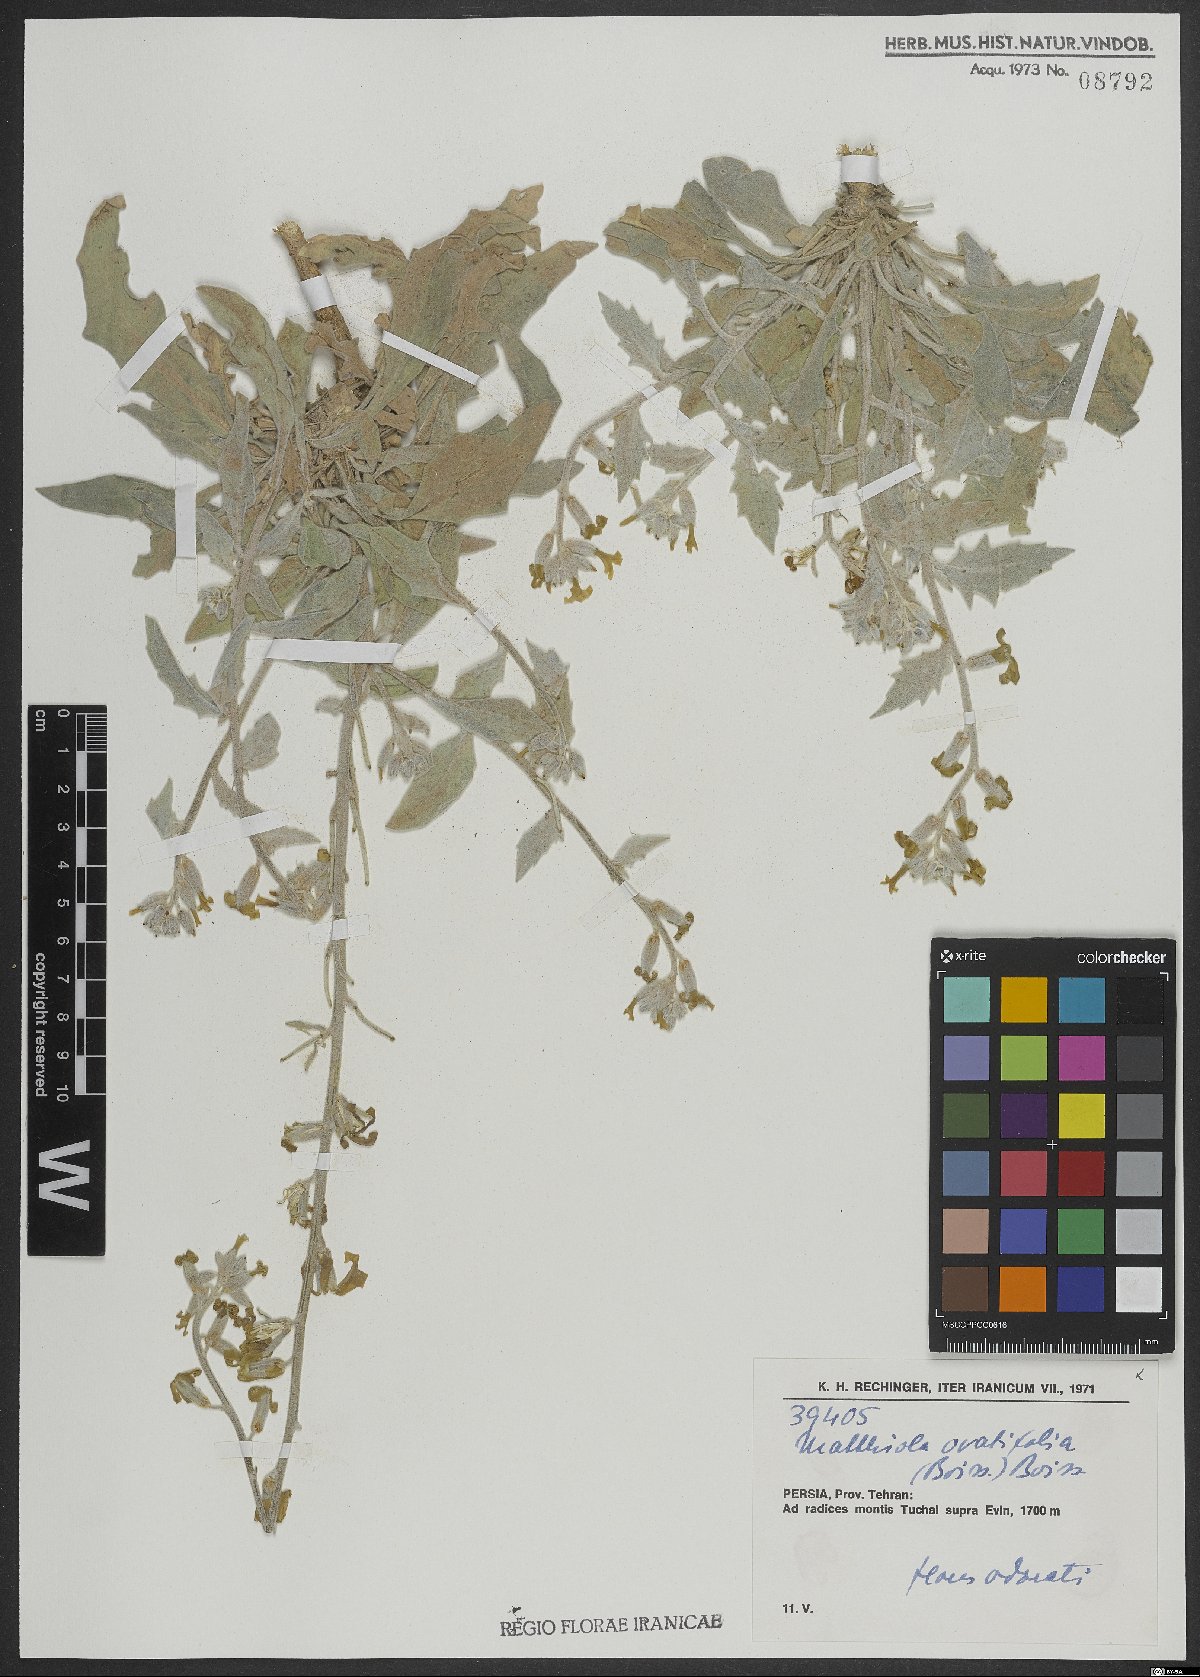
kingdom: Plantae
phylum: Tracheophyta
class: Magnoliopsida
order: Brassicales
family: Brassicaceae
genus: Matthiola
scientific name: Matthiola ovatifolia
